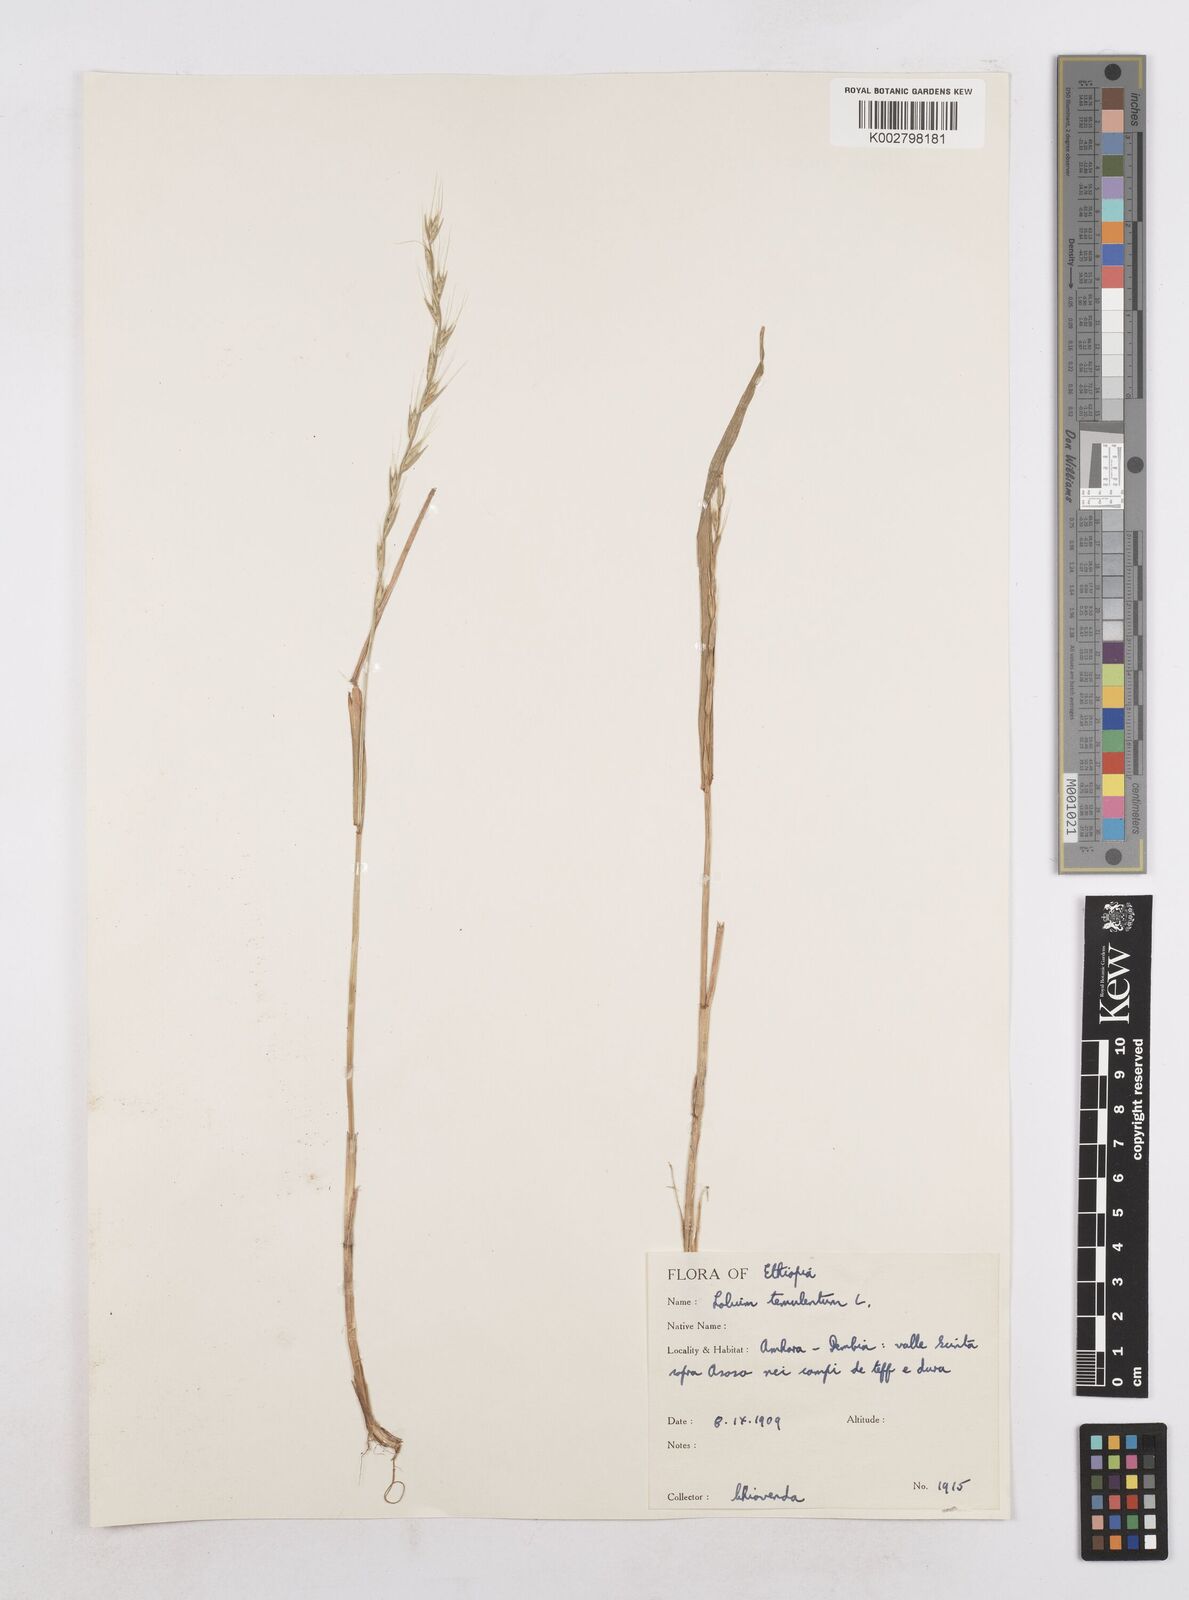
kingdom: Plantae
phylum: Tracheophyta
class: Liliopsida
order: Poales
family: Poaceae
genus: Lolium
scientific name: Lolium temulentum
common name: Darnel
